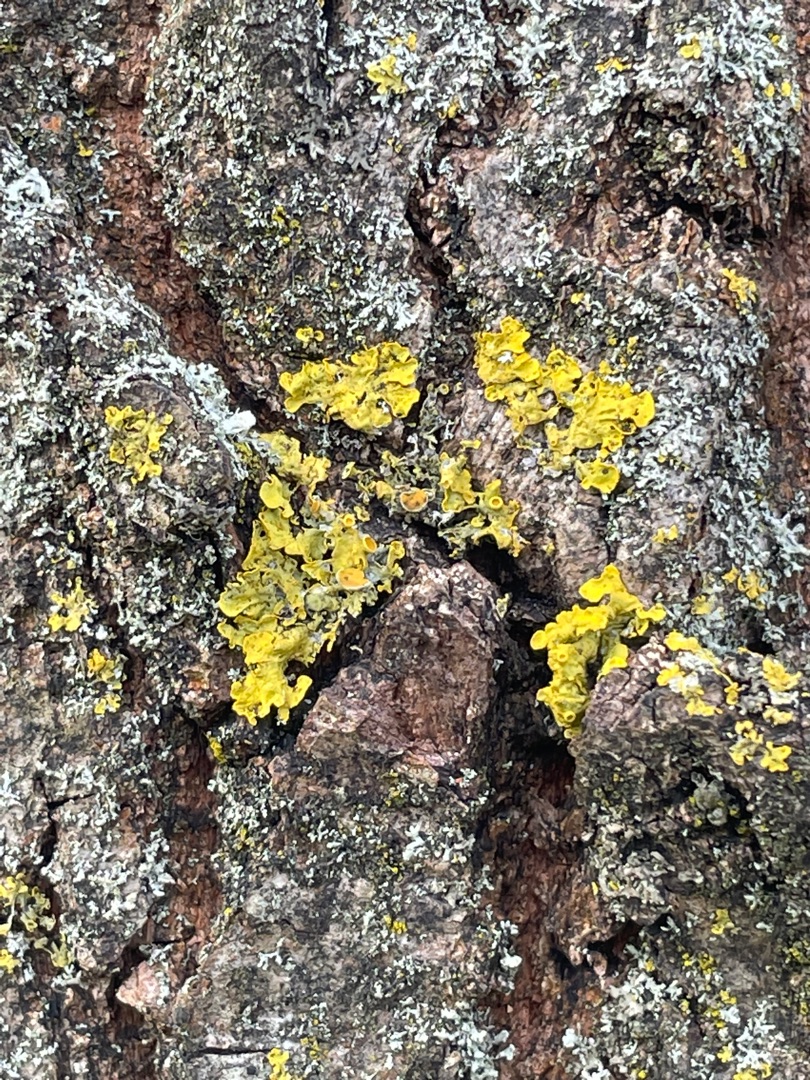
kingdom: Fungi
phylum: Ascomycota
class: Lecanoromycetes
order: Teloschistales
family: Teloschistaceae
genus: Xanthoria
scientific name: Xanthoria parietina
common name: Almindelig væggelav
